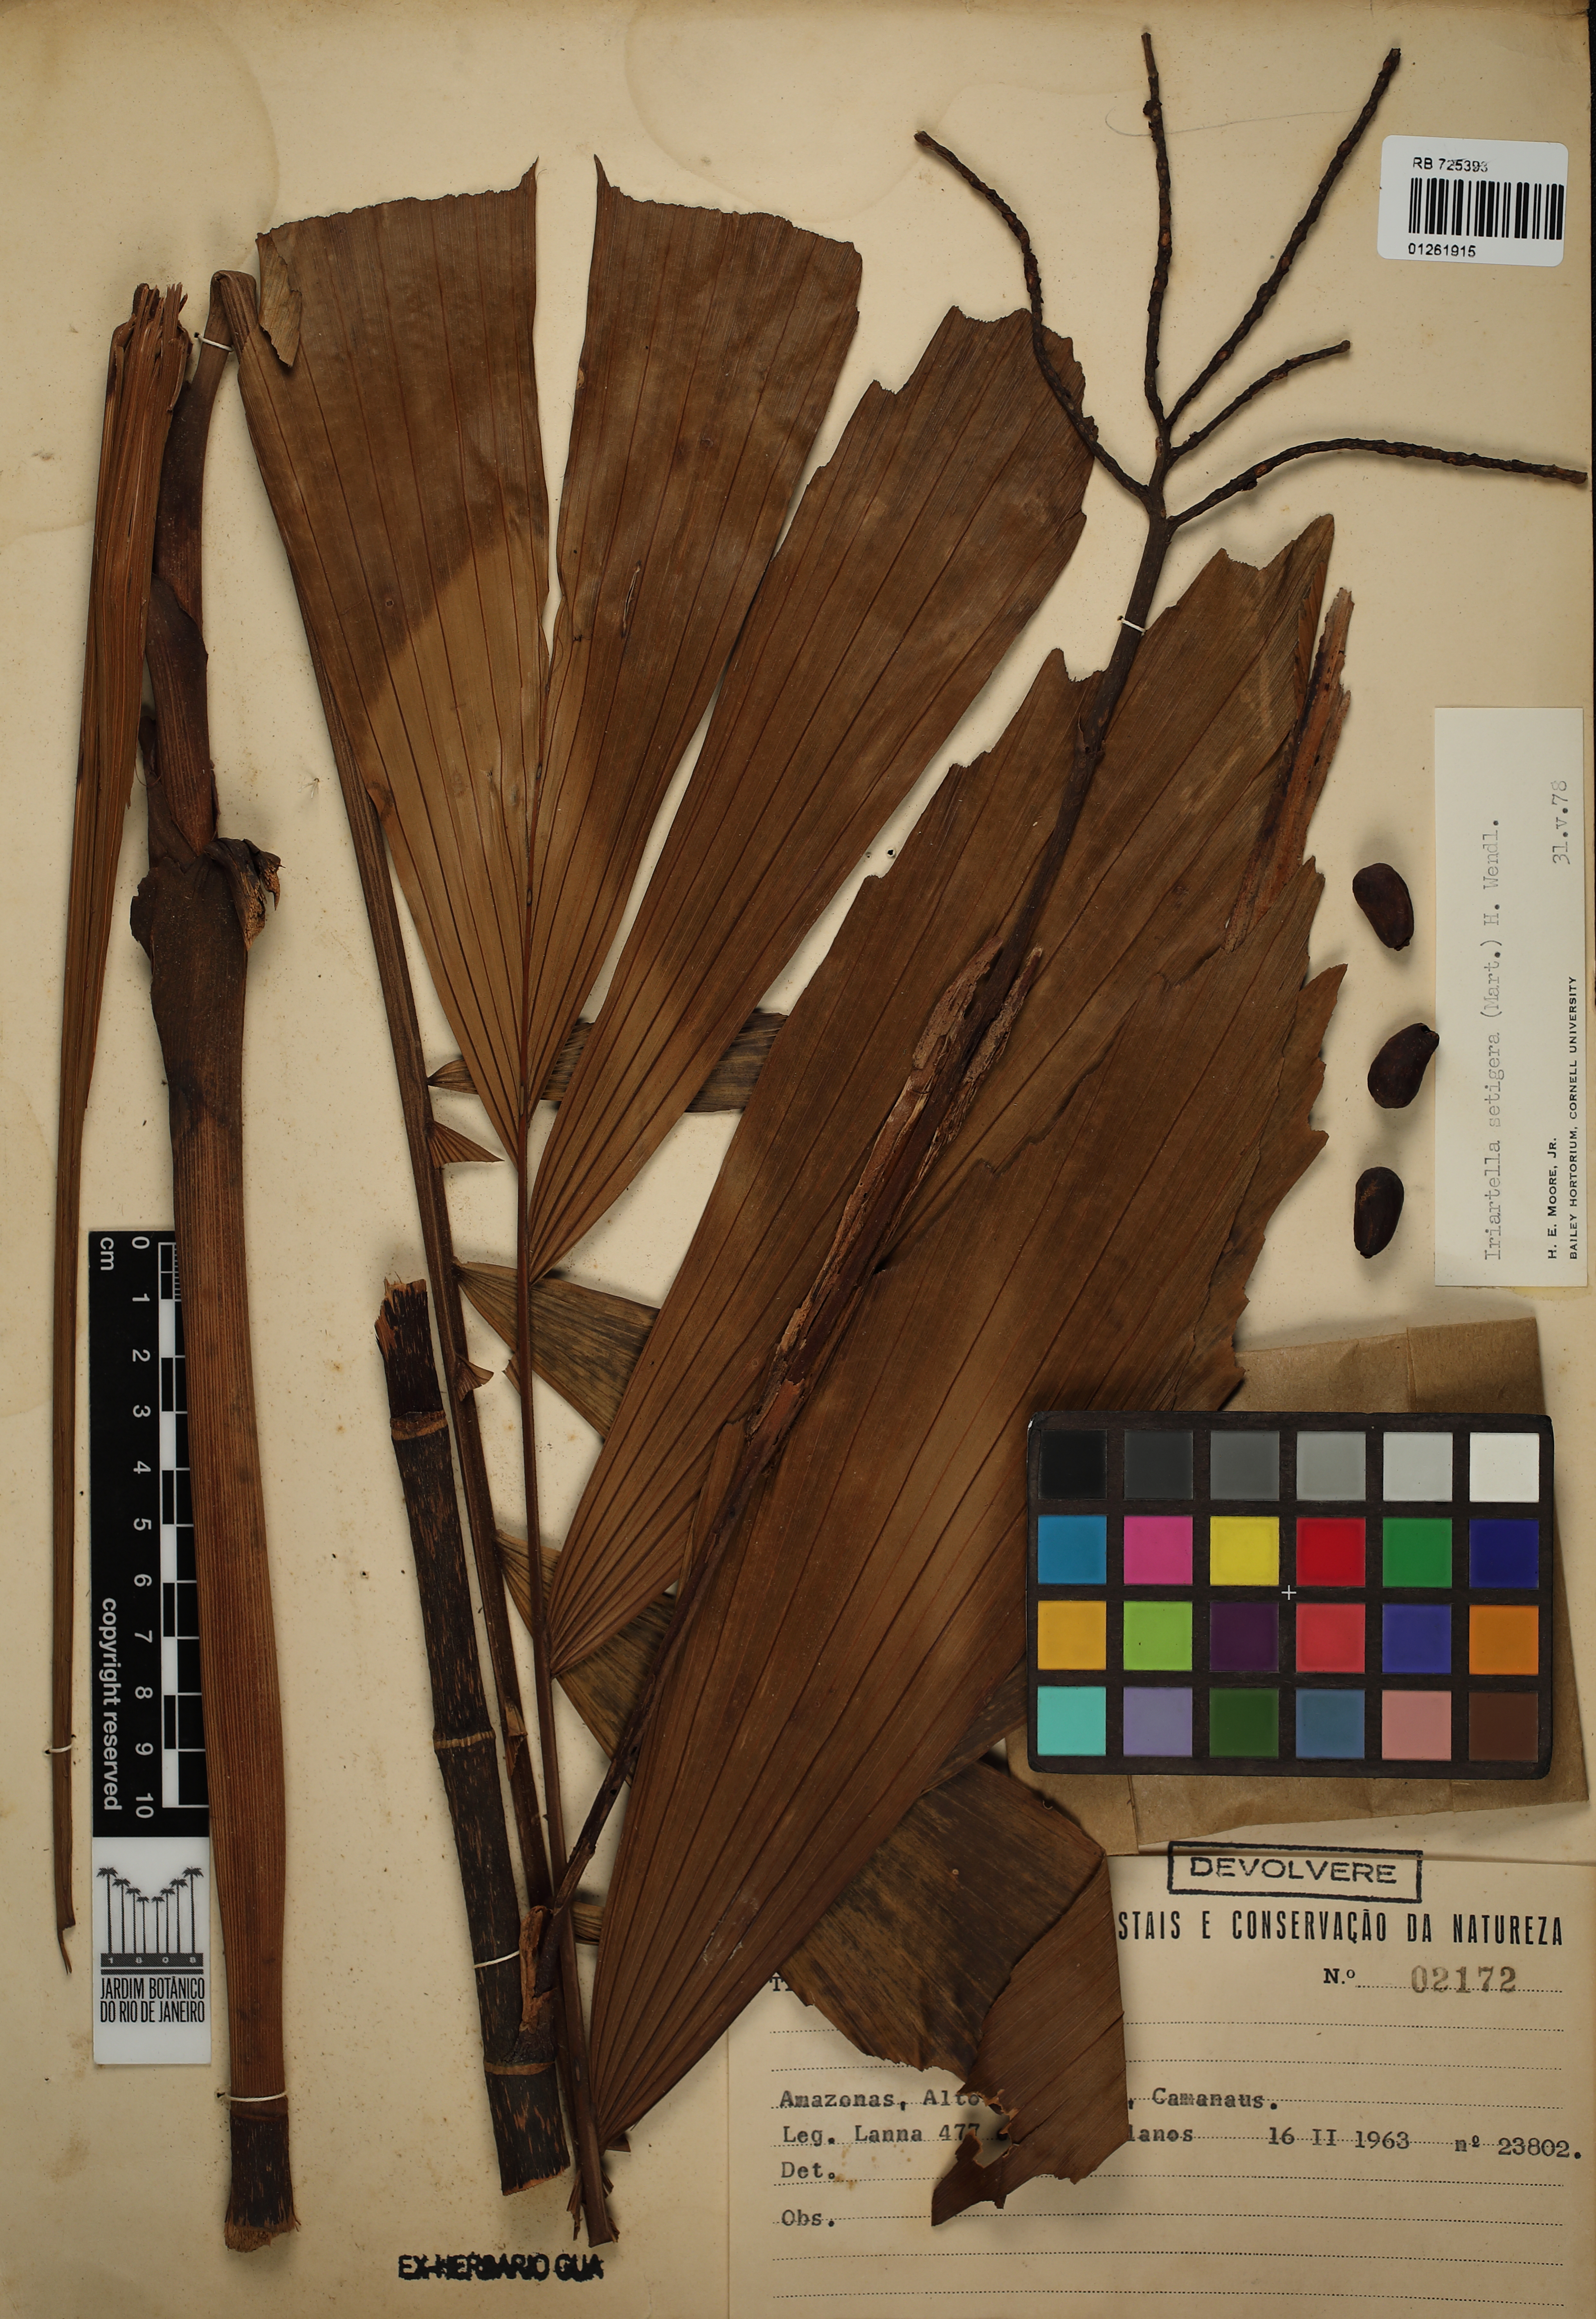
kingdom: Plantae
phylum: Tracheophyta
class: Liliopsida
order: Arecales
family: Arecaceae
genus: Iriartella
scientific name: Iriartella setigera
